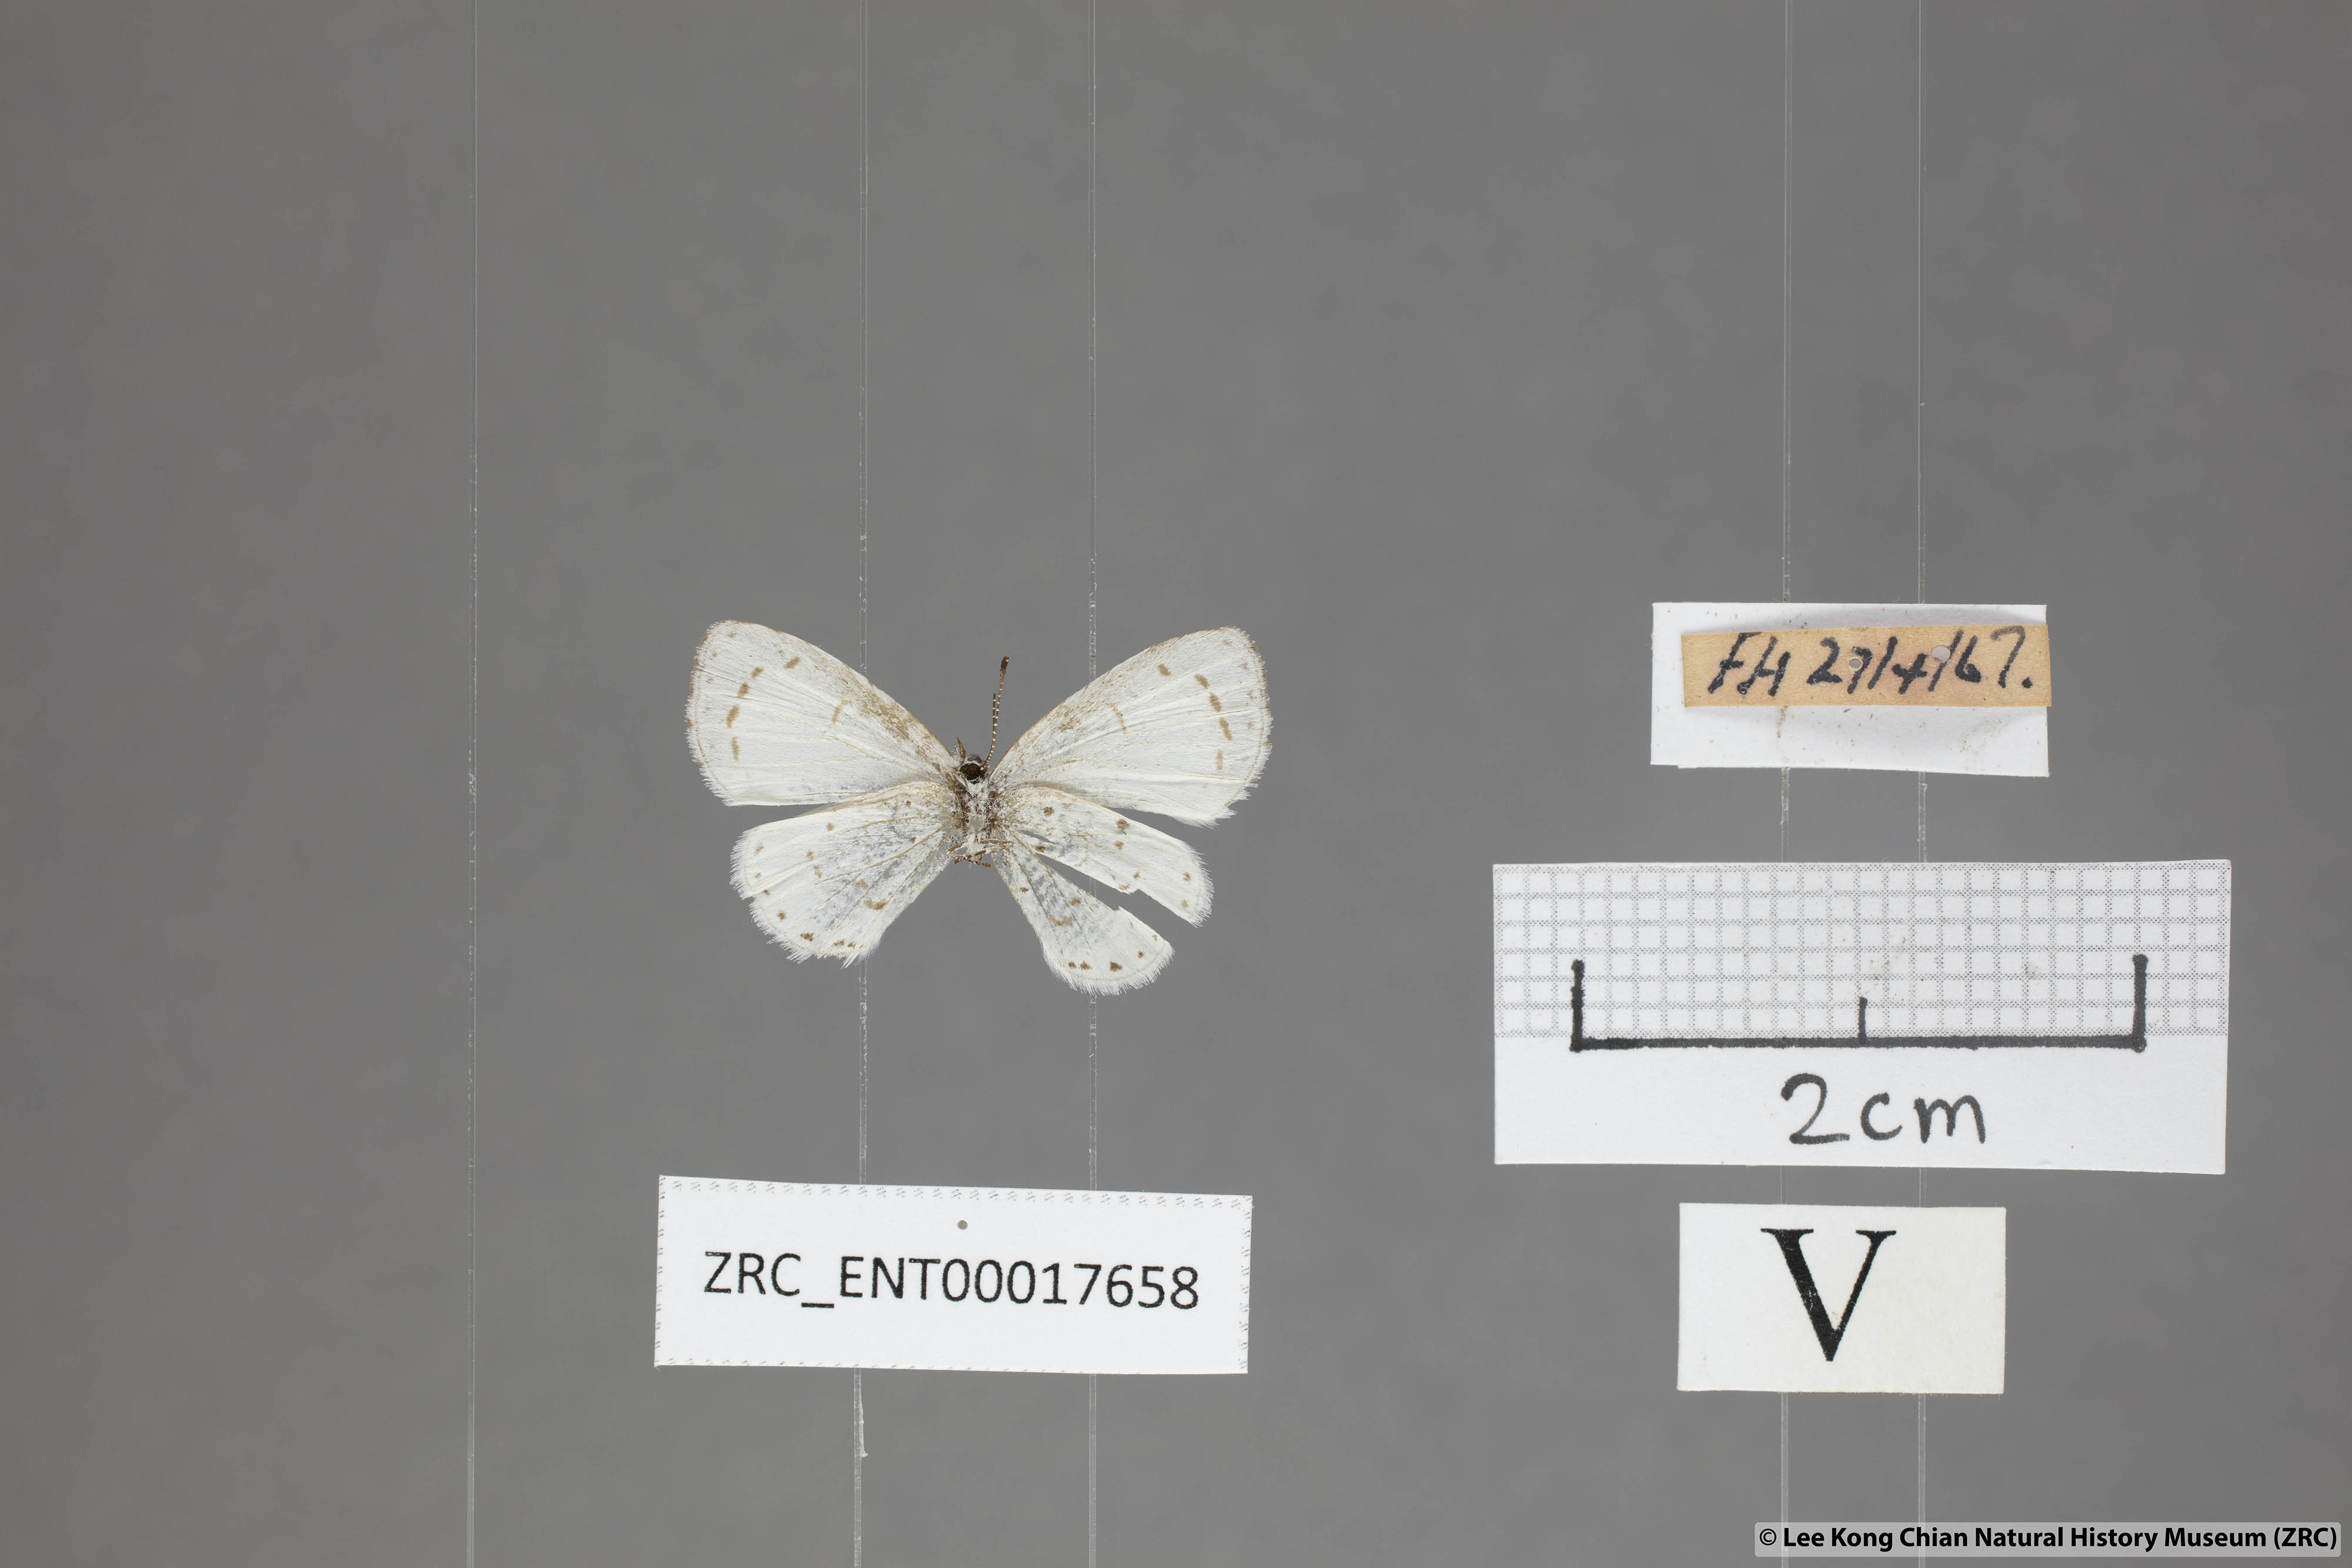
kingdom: Animalia
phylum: Arthropoda
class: Insecta
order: Lepidoptera
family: Lycaenidae
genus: Udara
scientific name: Udara akasa
